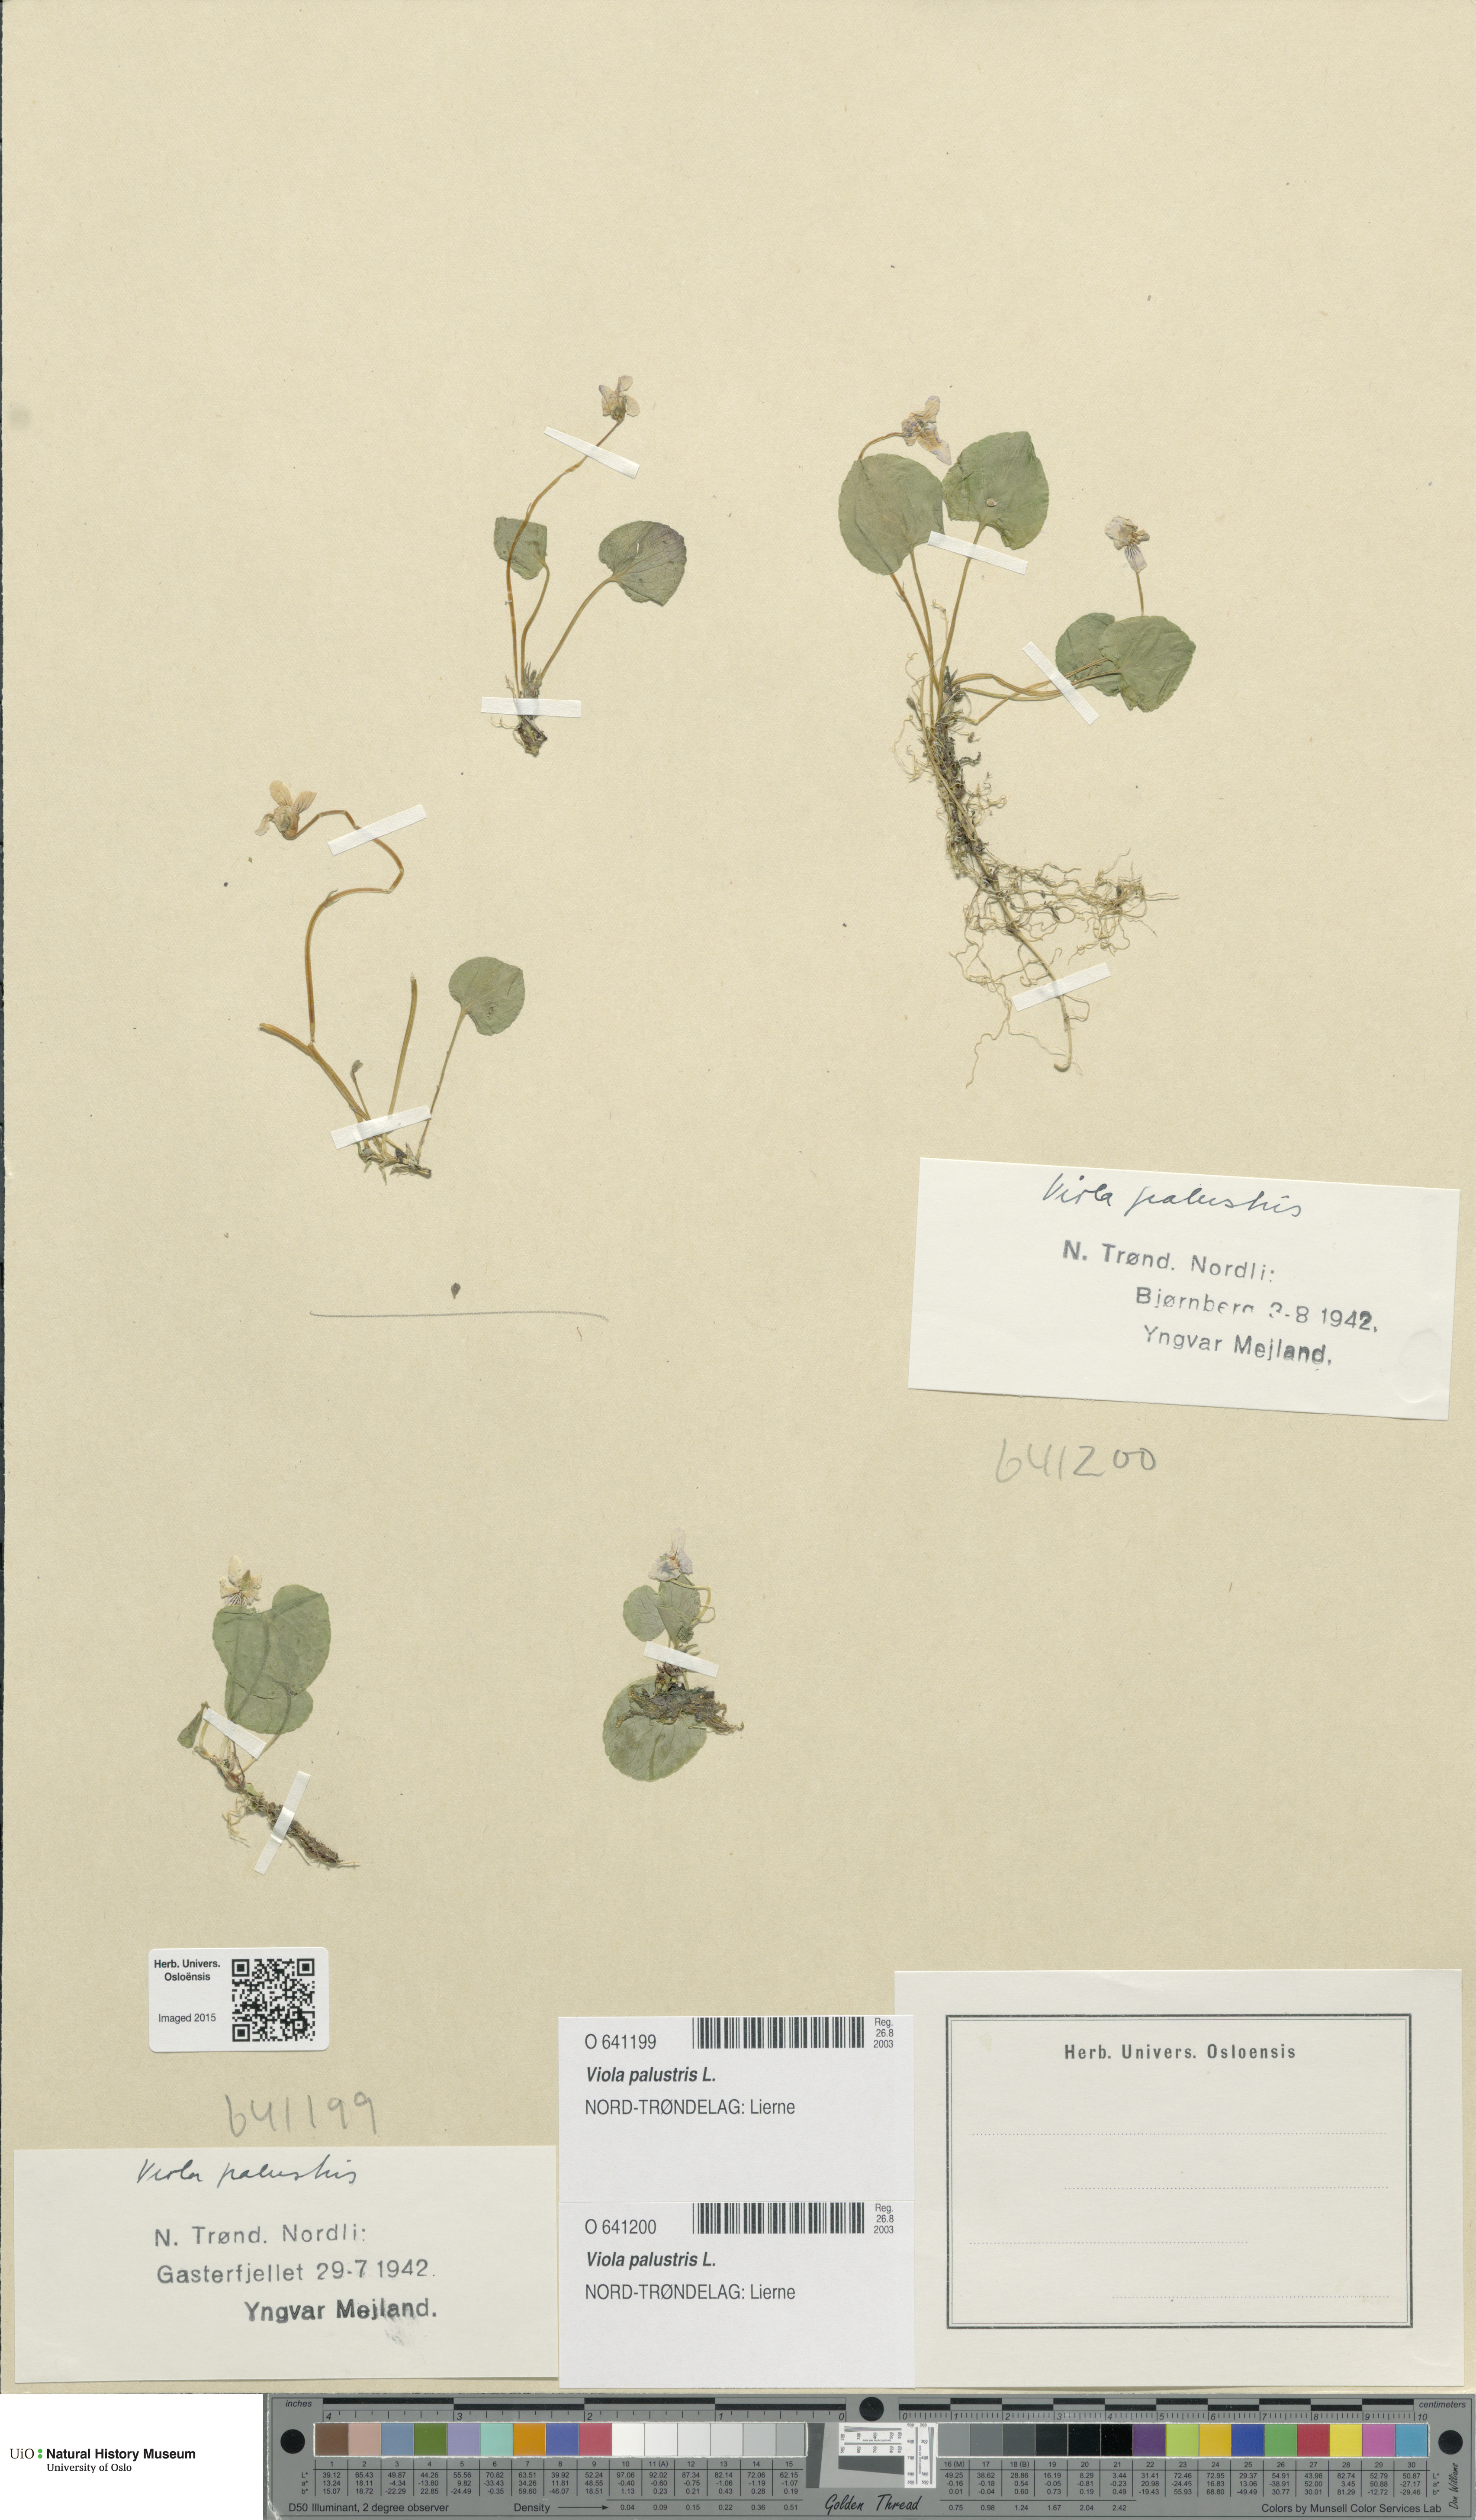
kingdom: Plantae
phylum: Tracheophyta
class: Magnoliopsida
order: Malpighiales
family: Violaceae
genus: Viola
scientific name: Viola palustris
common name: Marsh violet
